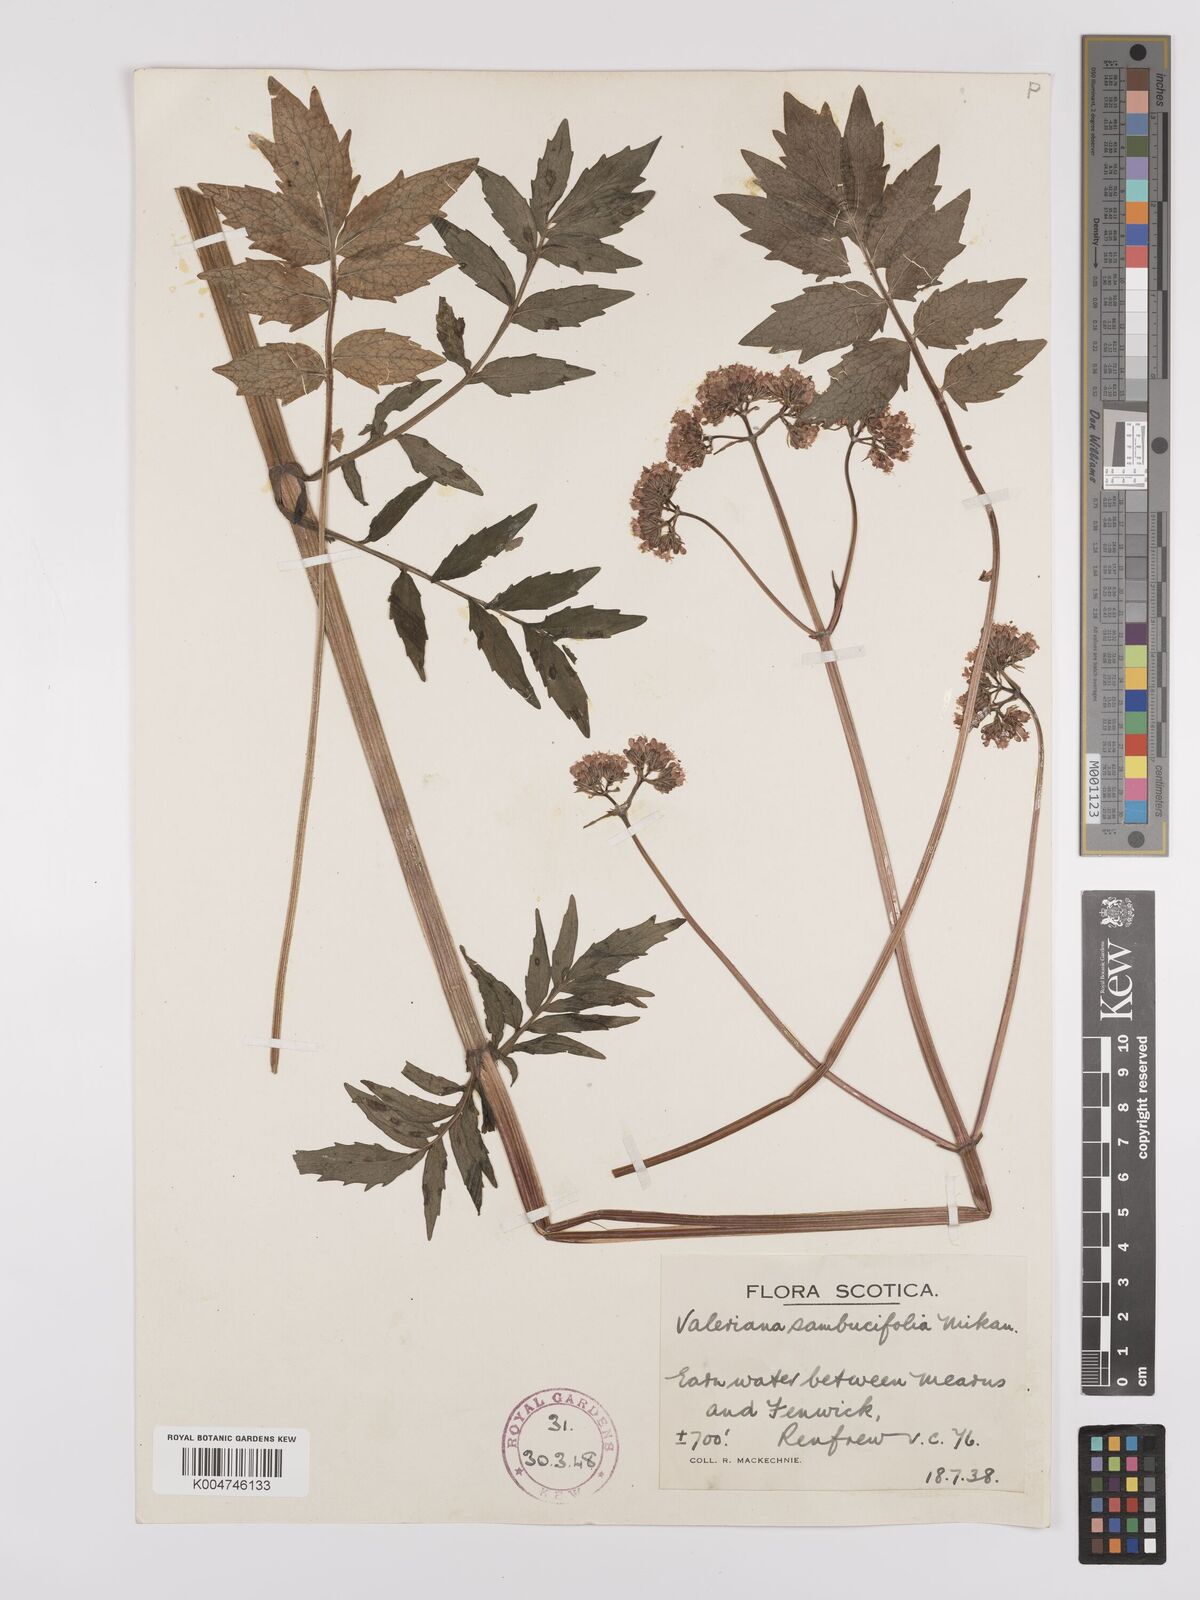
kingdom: Plantae
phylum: Tracheophyta
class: Magnoliopsida
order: Dipsacales
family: Caprifoliaceae
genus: Valeriana
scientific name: Valeriana excelsa
